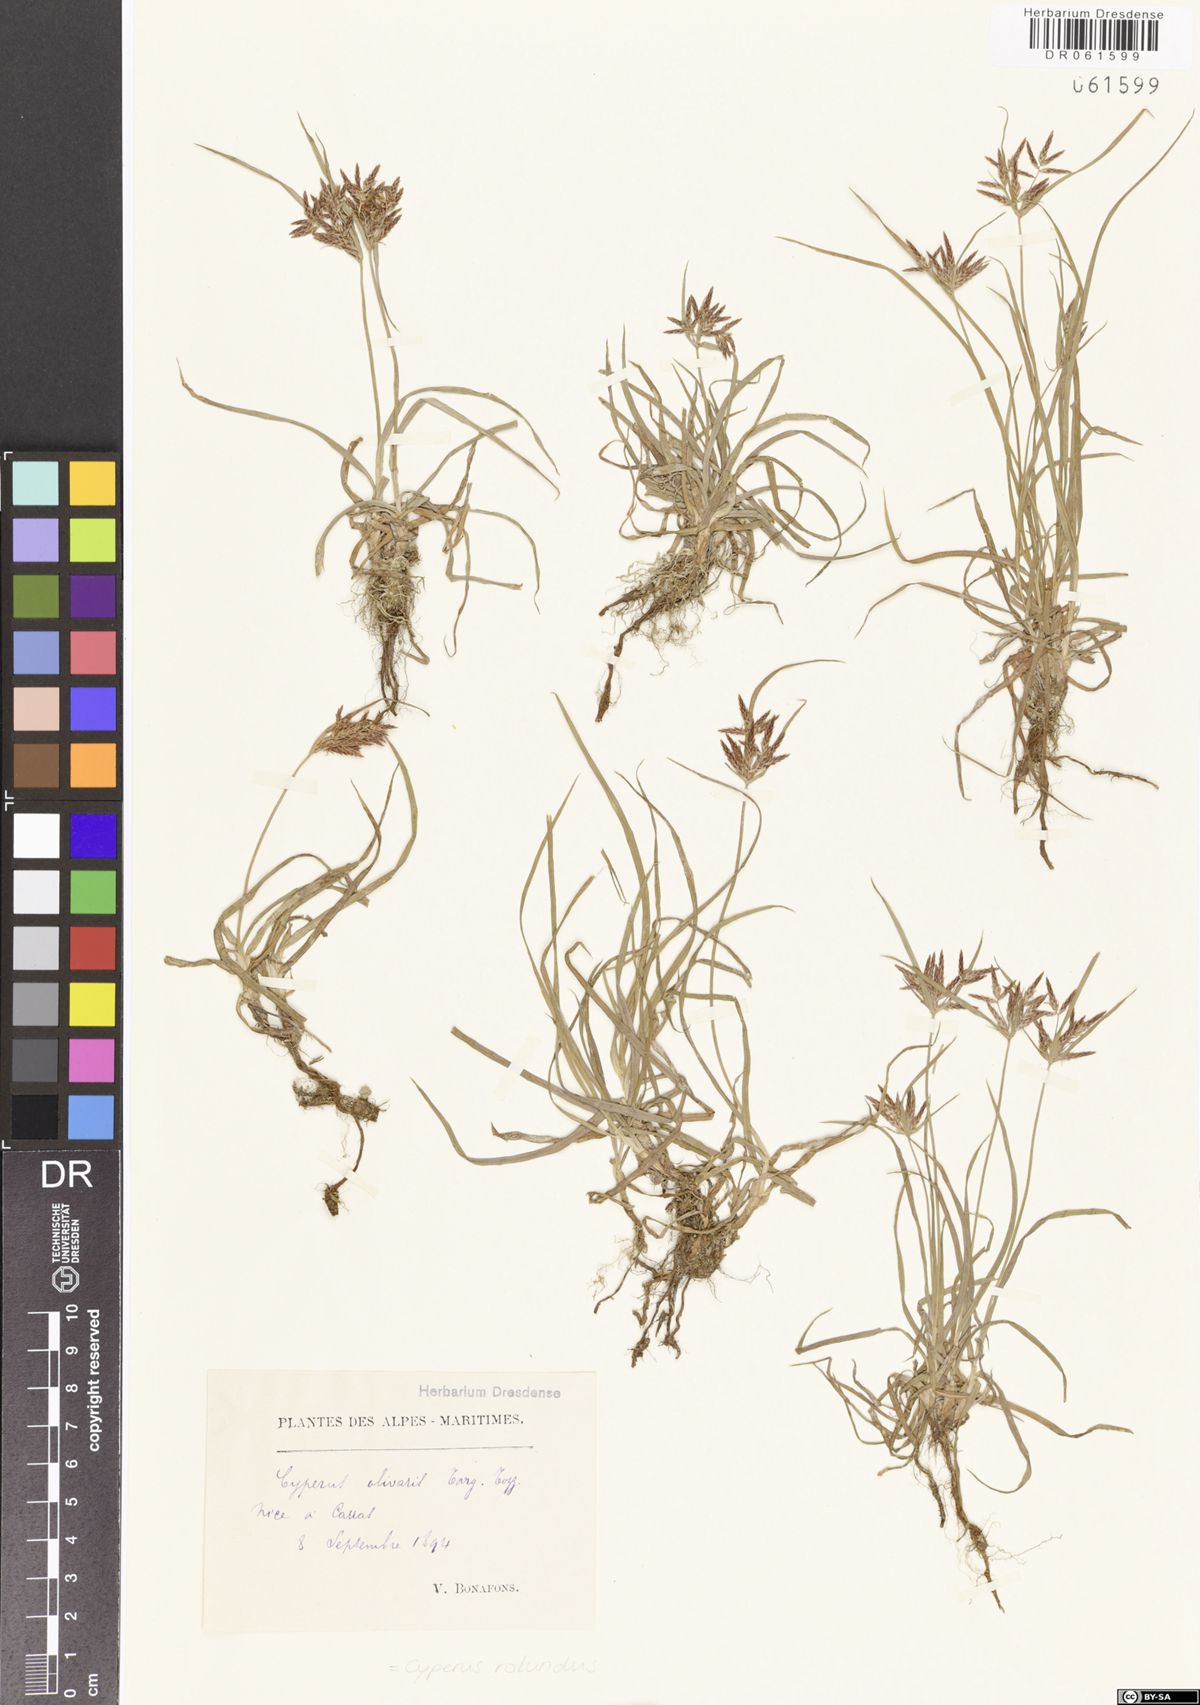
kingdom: Plantae
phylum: Tracheophyta
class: Liliopsida
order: Poales
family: Cyperaceae
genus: Cyperus
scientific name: Cyperus rotundus
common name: Nutgrass
